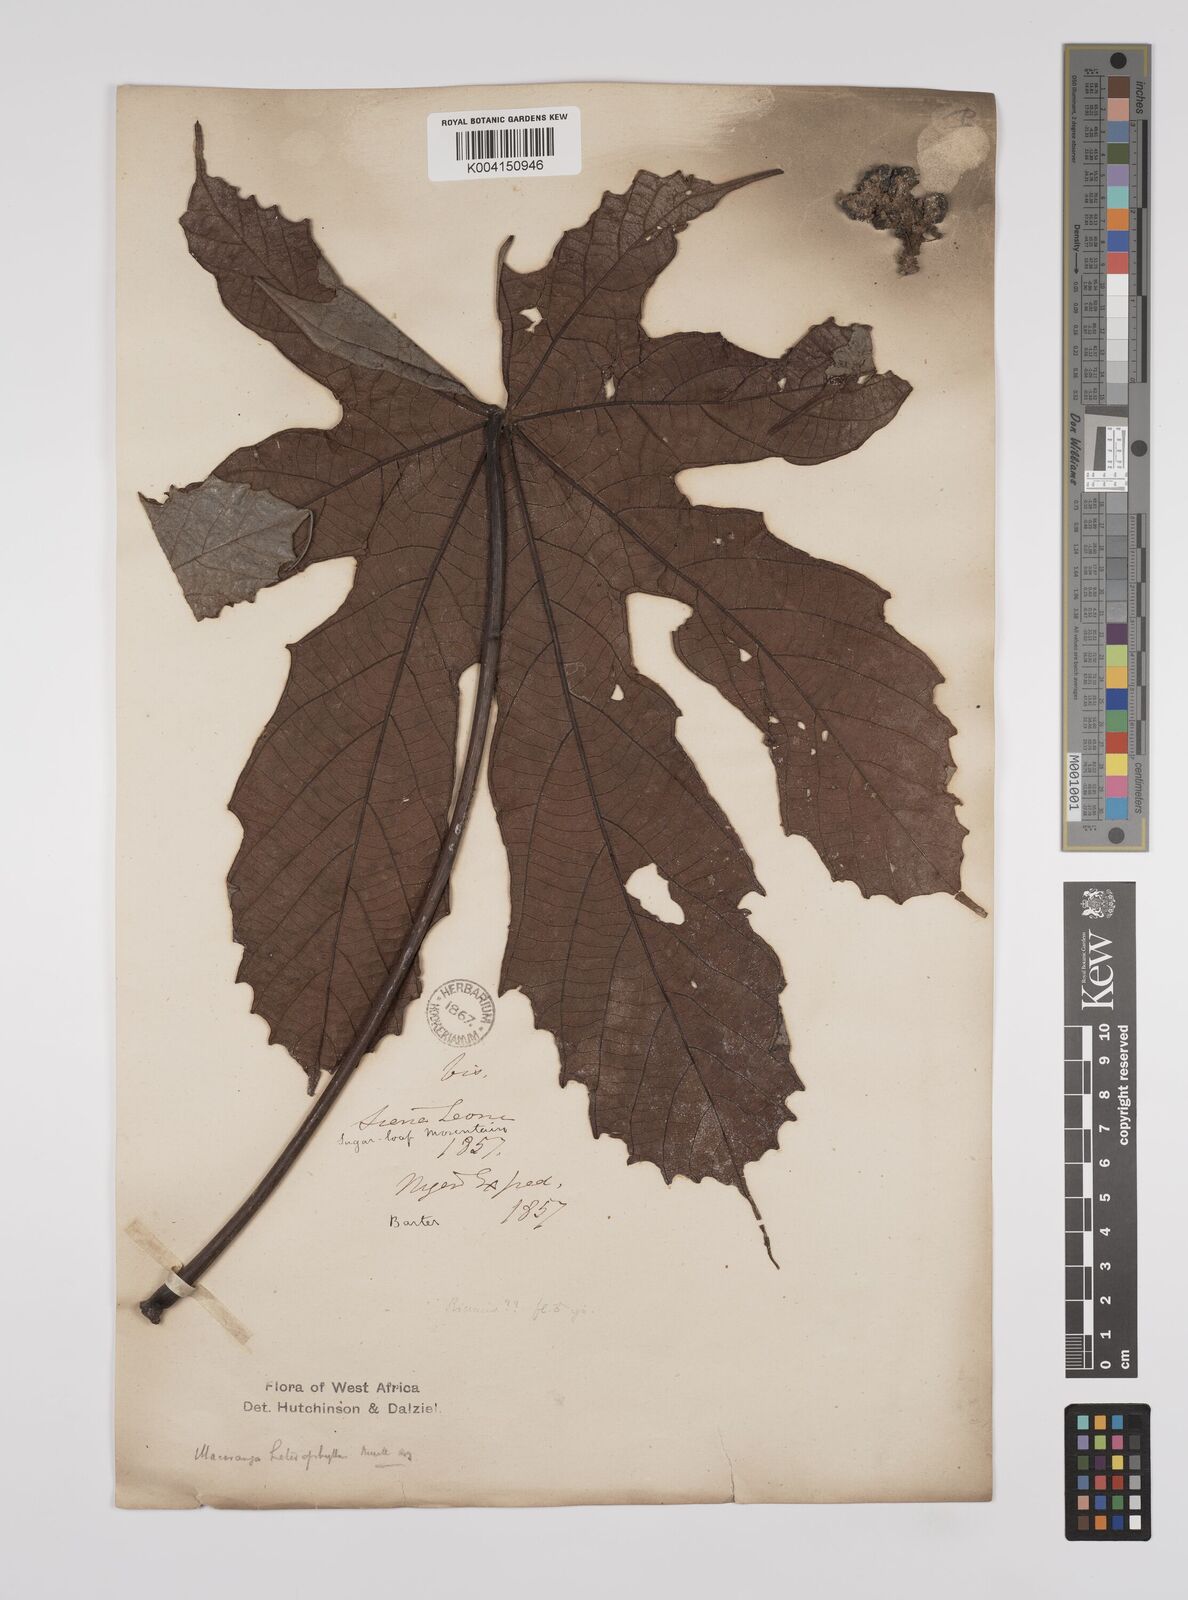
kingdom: Plantae
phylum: Tracheophyta
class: Magnoliopsida
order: Malpighiales
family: Euphorbiaceae
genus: Macaranga
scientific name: Macaranga heterophylla
